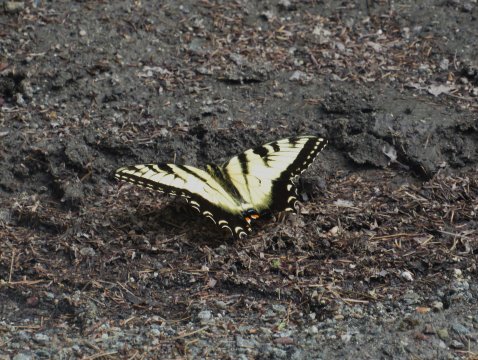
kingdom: Animalia
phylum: Arthropoda
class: Insecta
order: Lepidoptera
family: Papilionidae
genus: Pterourus
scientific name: Pterourus glaucus
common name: Eastern Tiger Swallowtail
